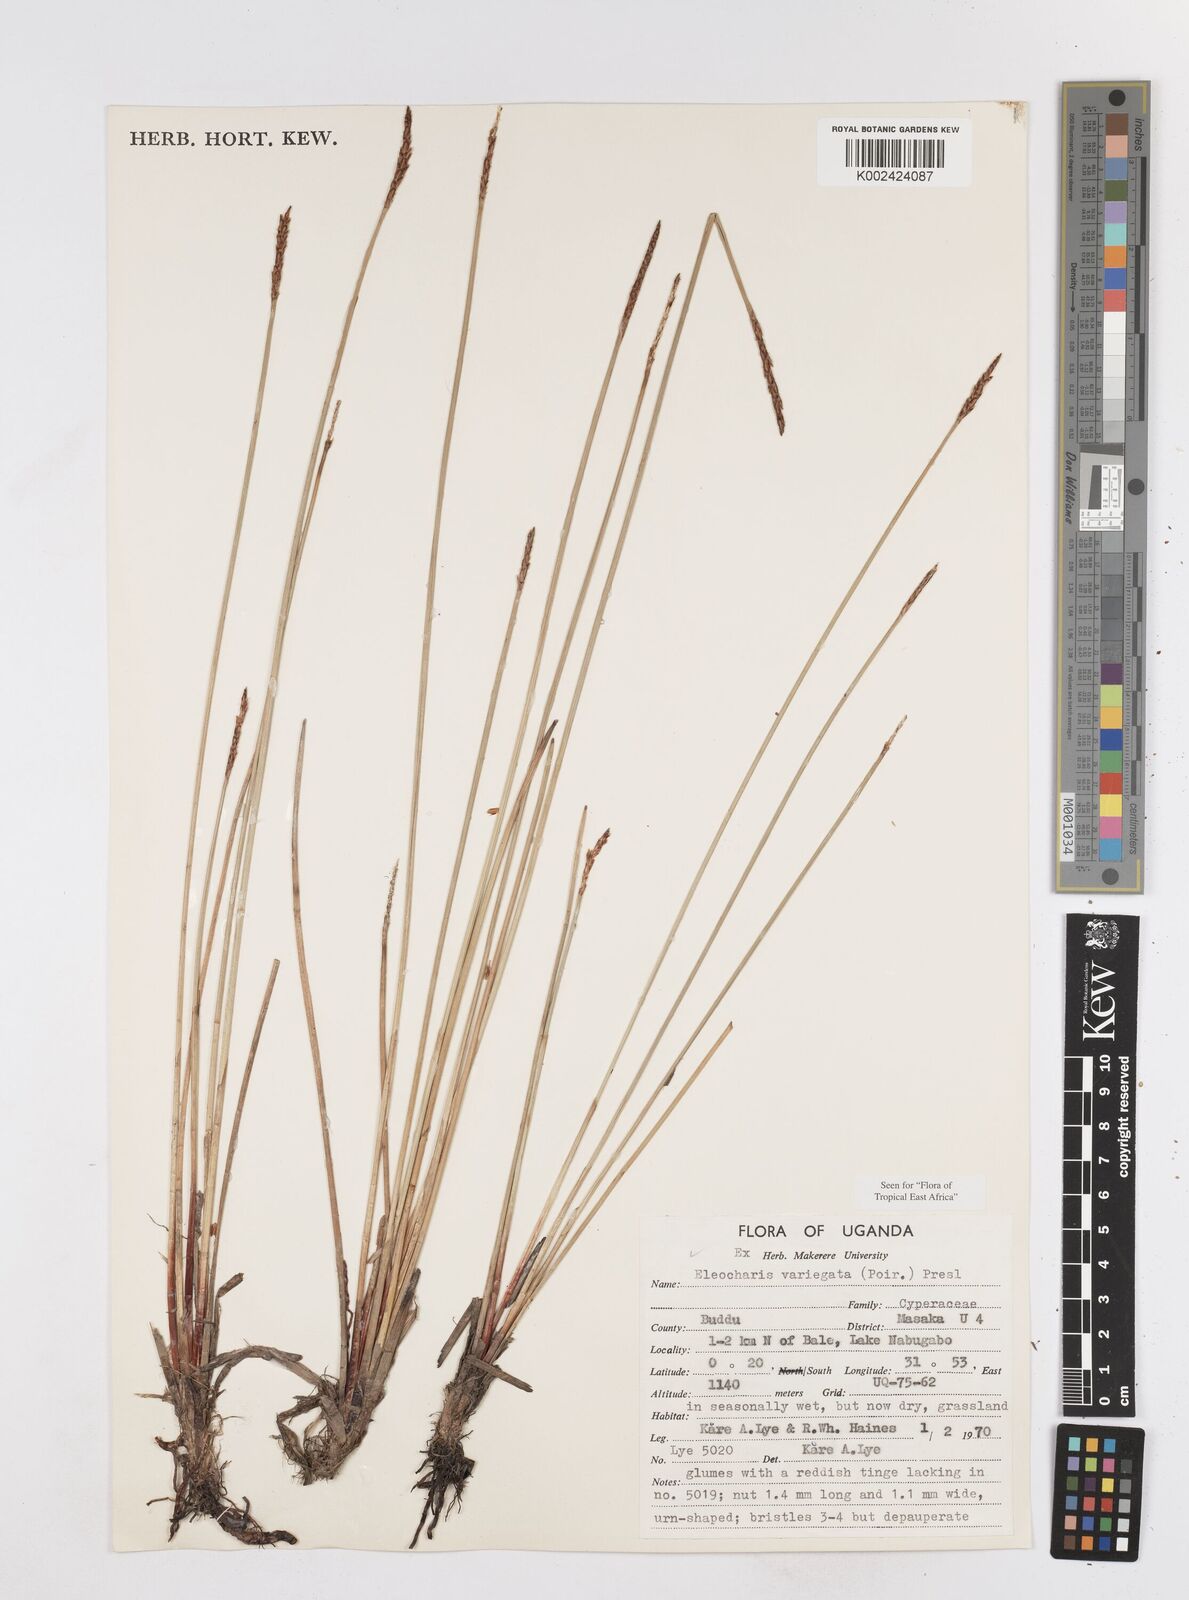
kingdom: Plantae
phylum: Tracheophyta
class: Liliopsida
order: Poales
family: Cyperaceae
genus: Eleocharis
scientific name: Eleocharis variegata
